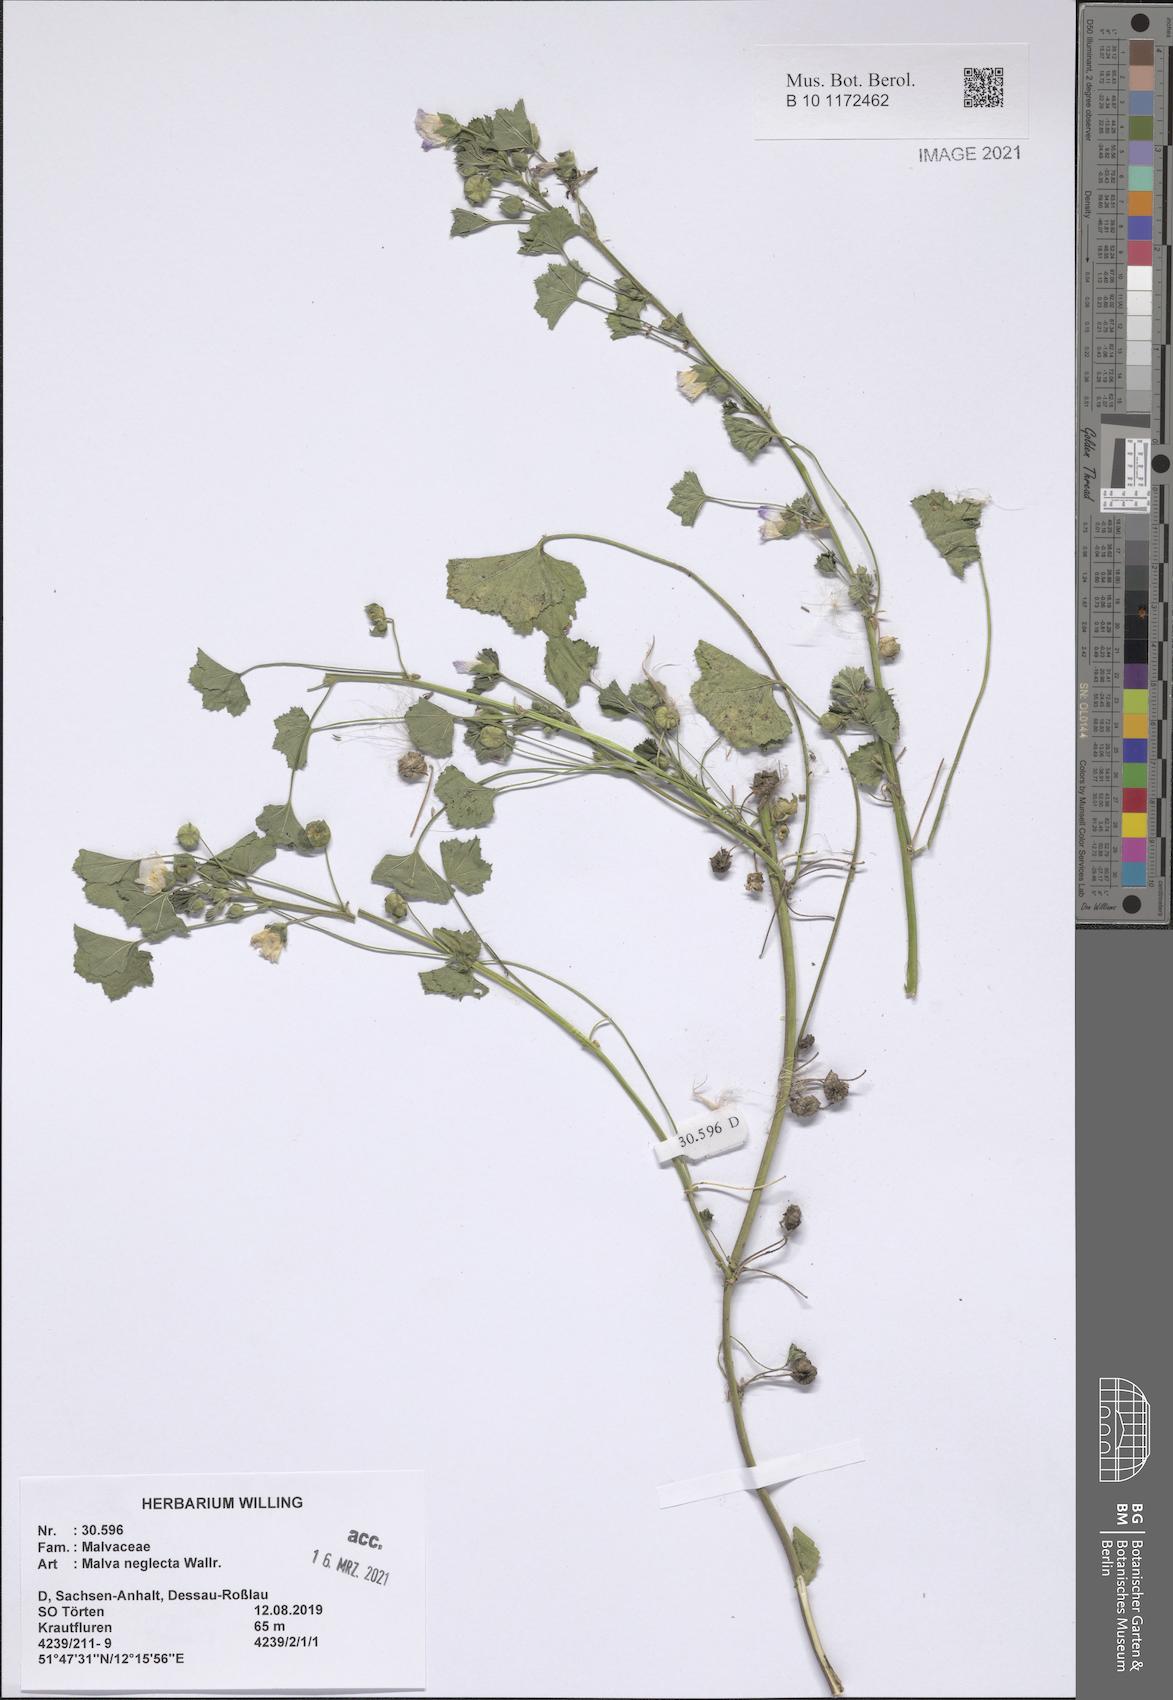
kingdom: Plantae
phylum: Tracheophyta
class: Magnoliopsida
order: Malvales
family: Malvaceae
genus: Malva
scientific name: Malva neglecta
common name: Common mallow
